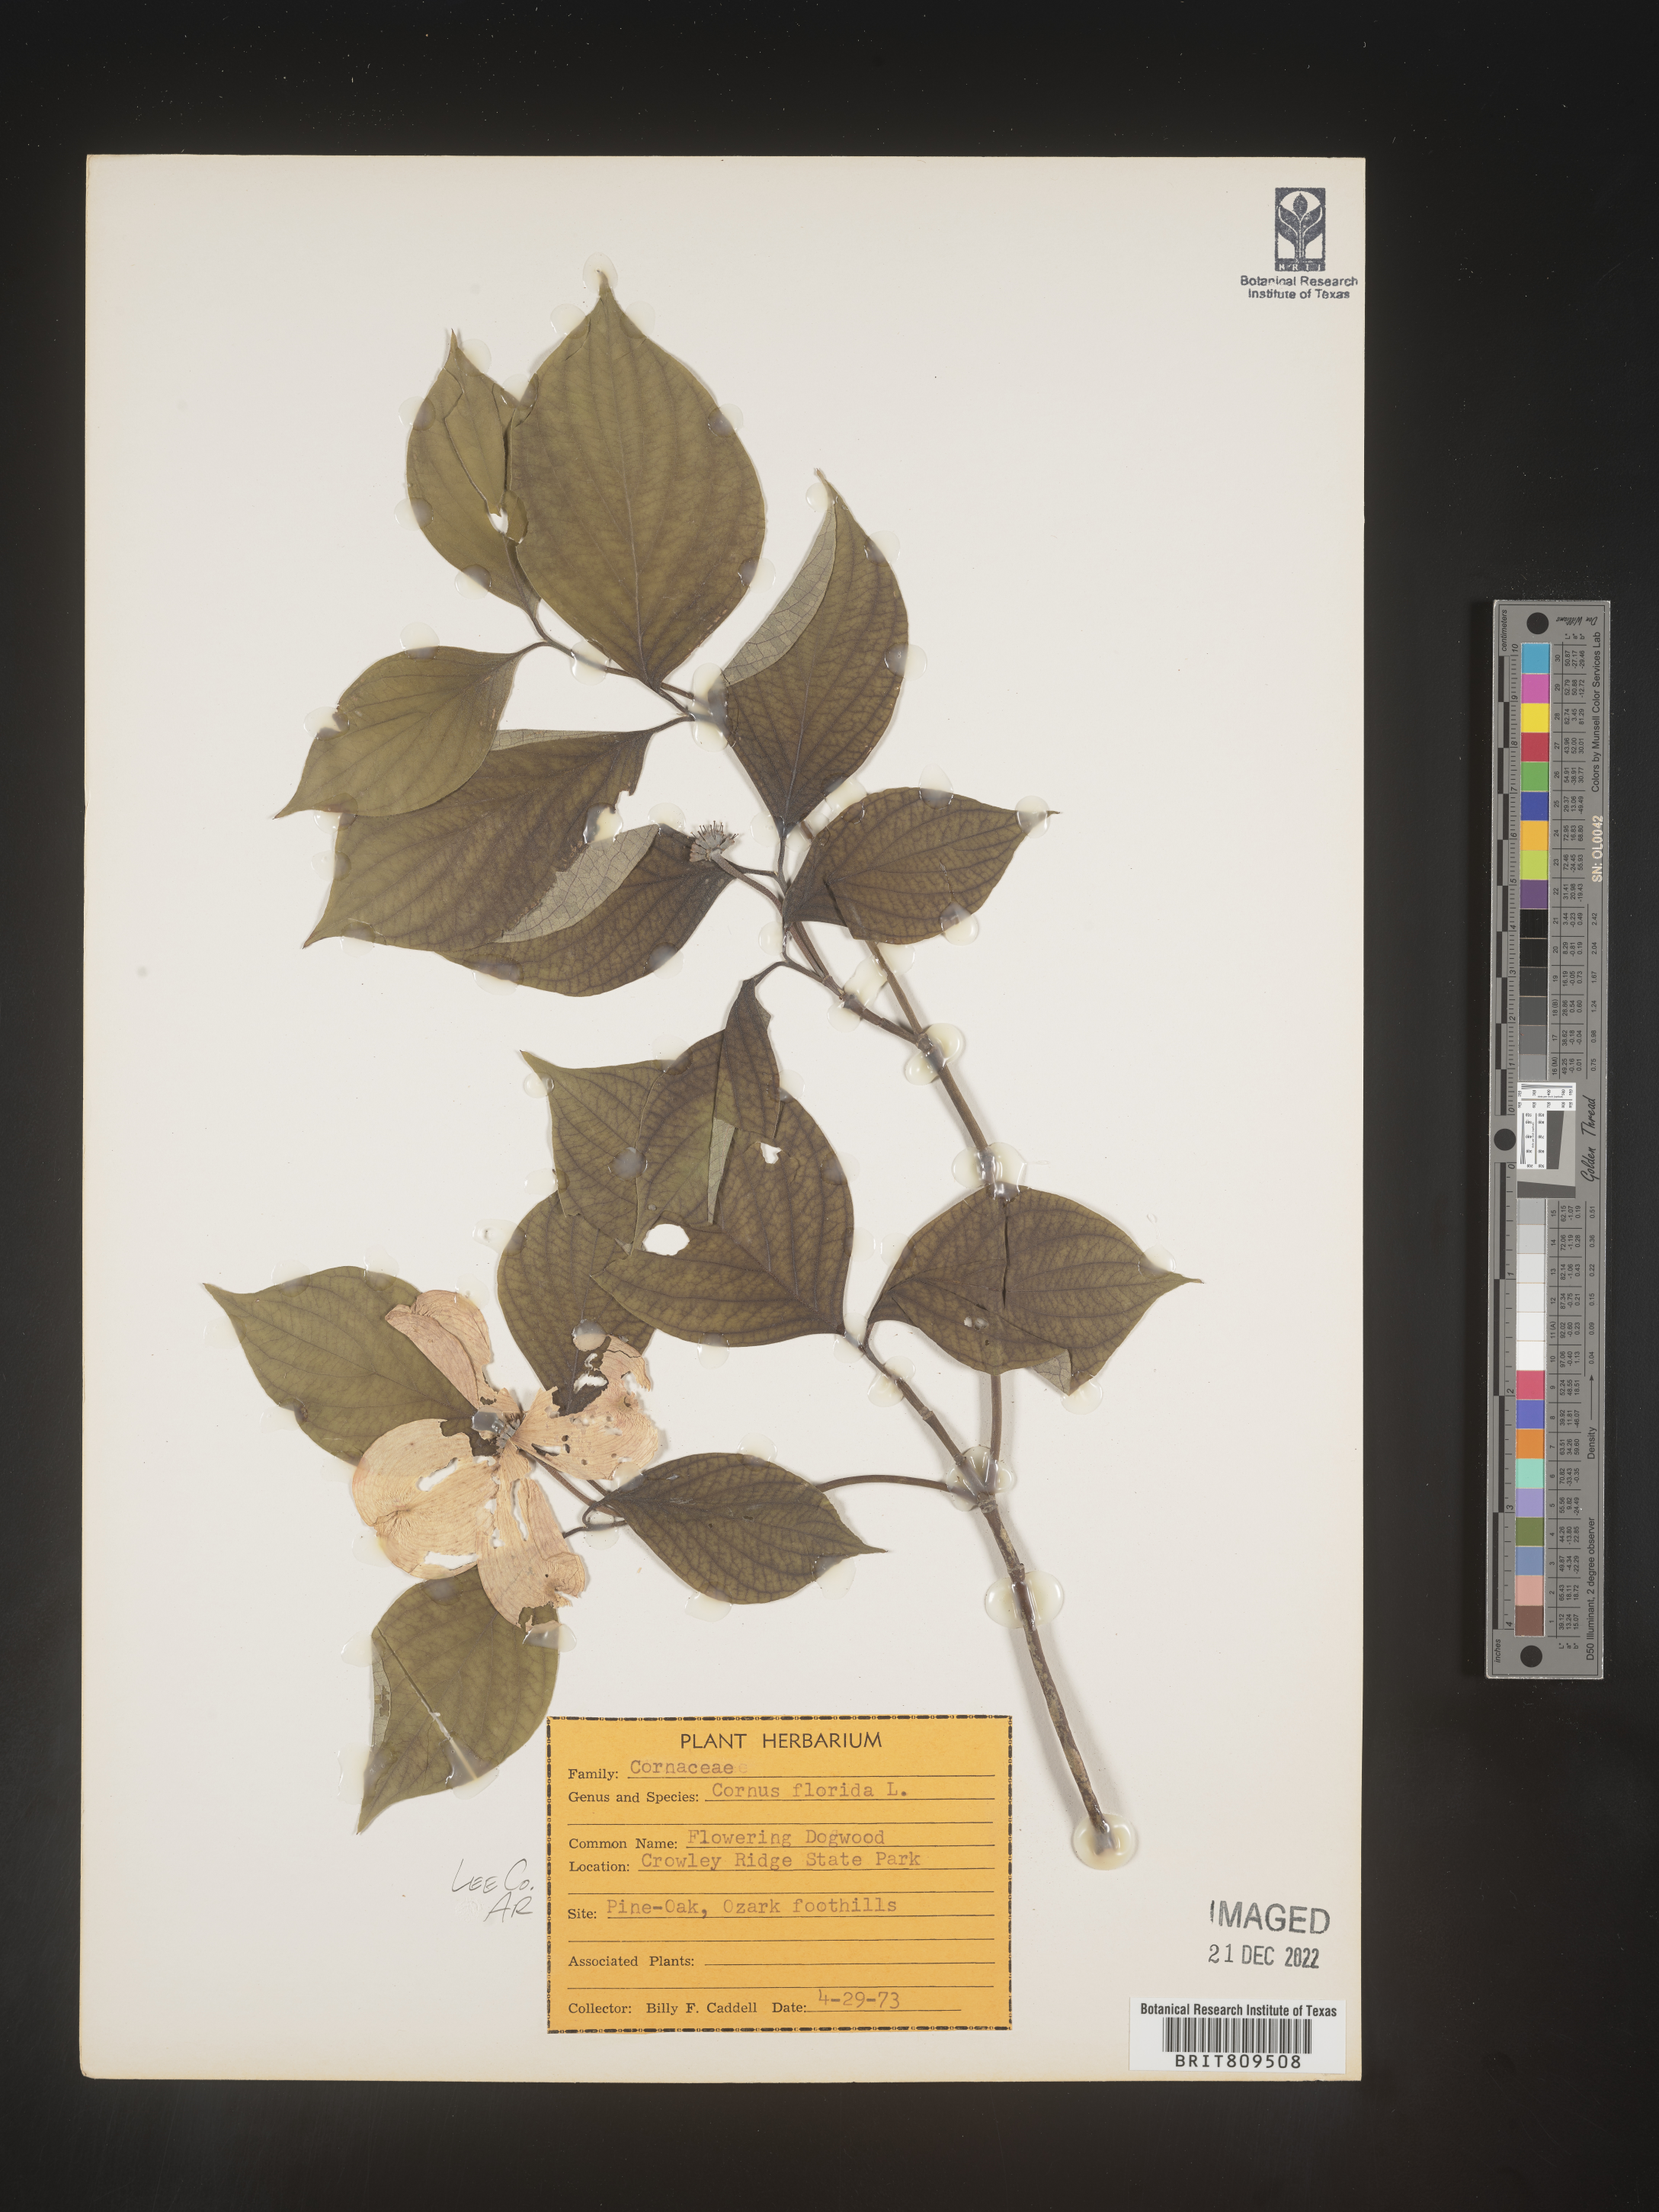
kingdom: Plantae
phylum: Tracheophyta
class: Magnoliopsida
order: Cornales
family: Cornaceae
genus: Cornus
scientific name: Cornus florida
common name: Flowering dogwood
